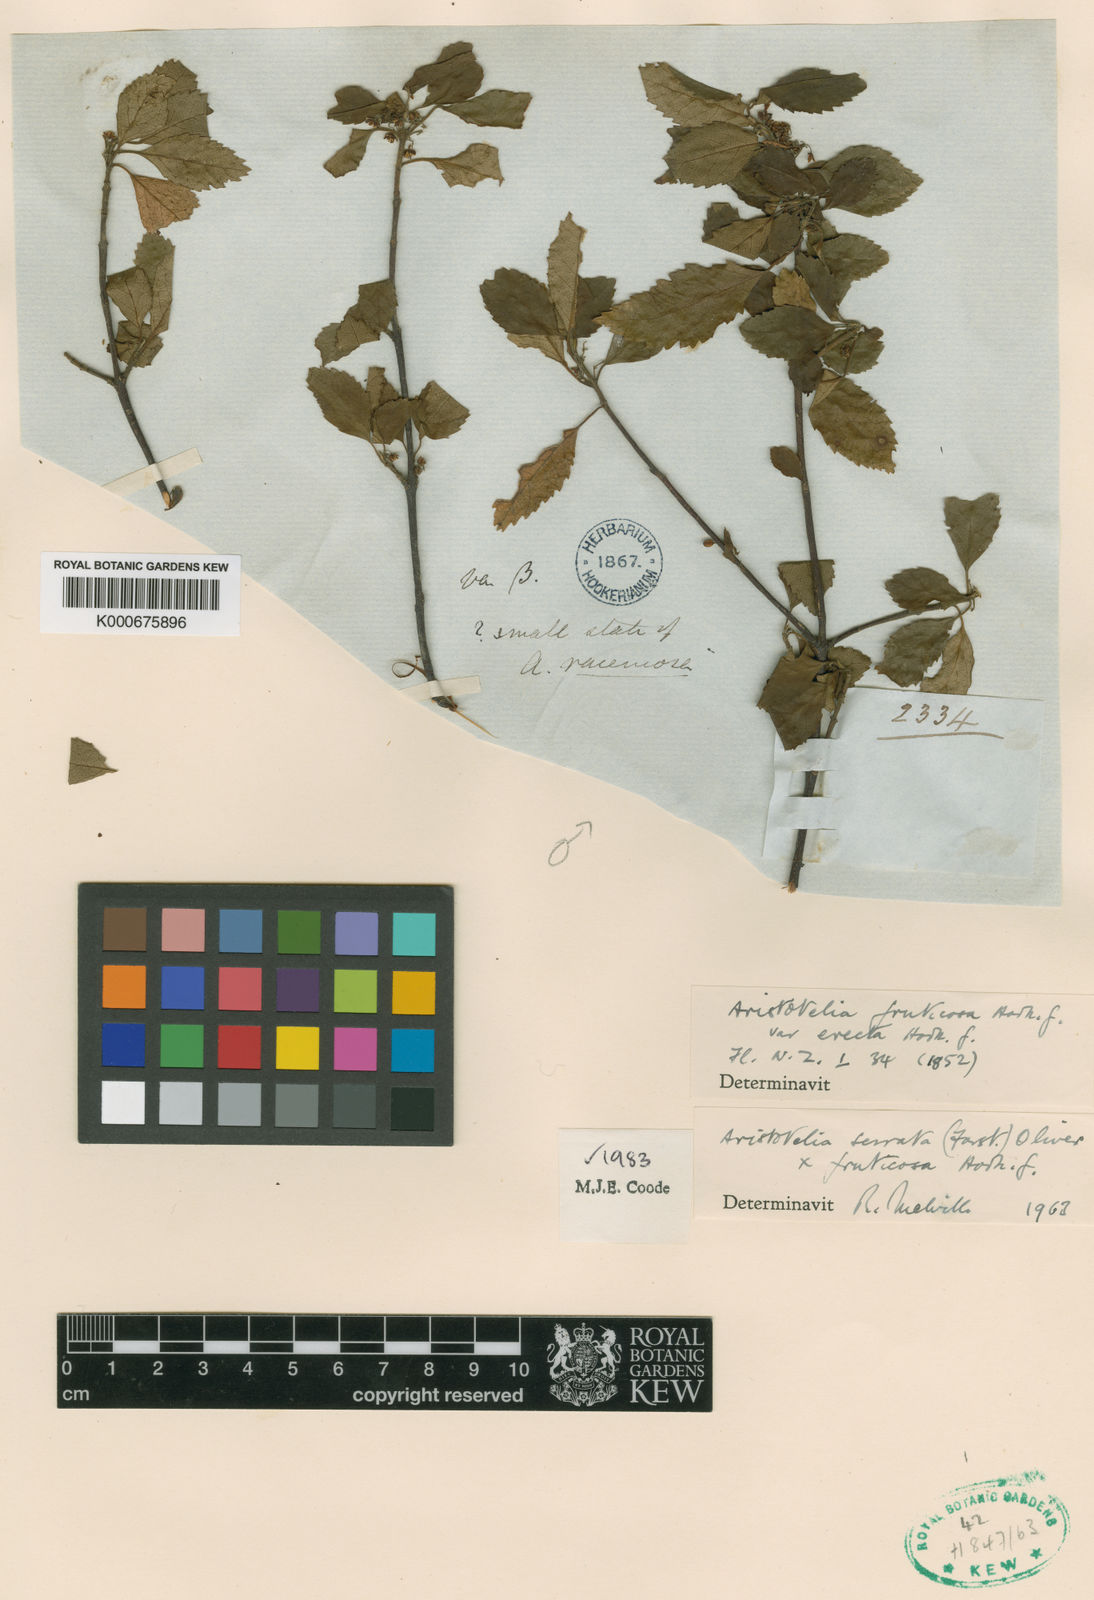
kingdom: Plantae
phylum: Tracheophyta
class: Magnoliopsida
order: Oxalidales
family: Elaeocarpaceae
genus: Aristotelia
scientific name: Aristotelia fruticosa
